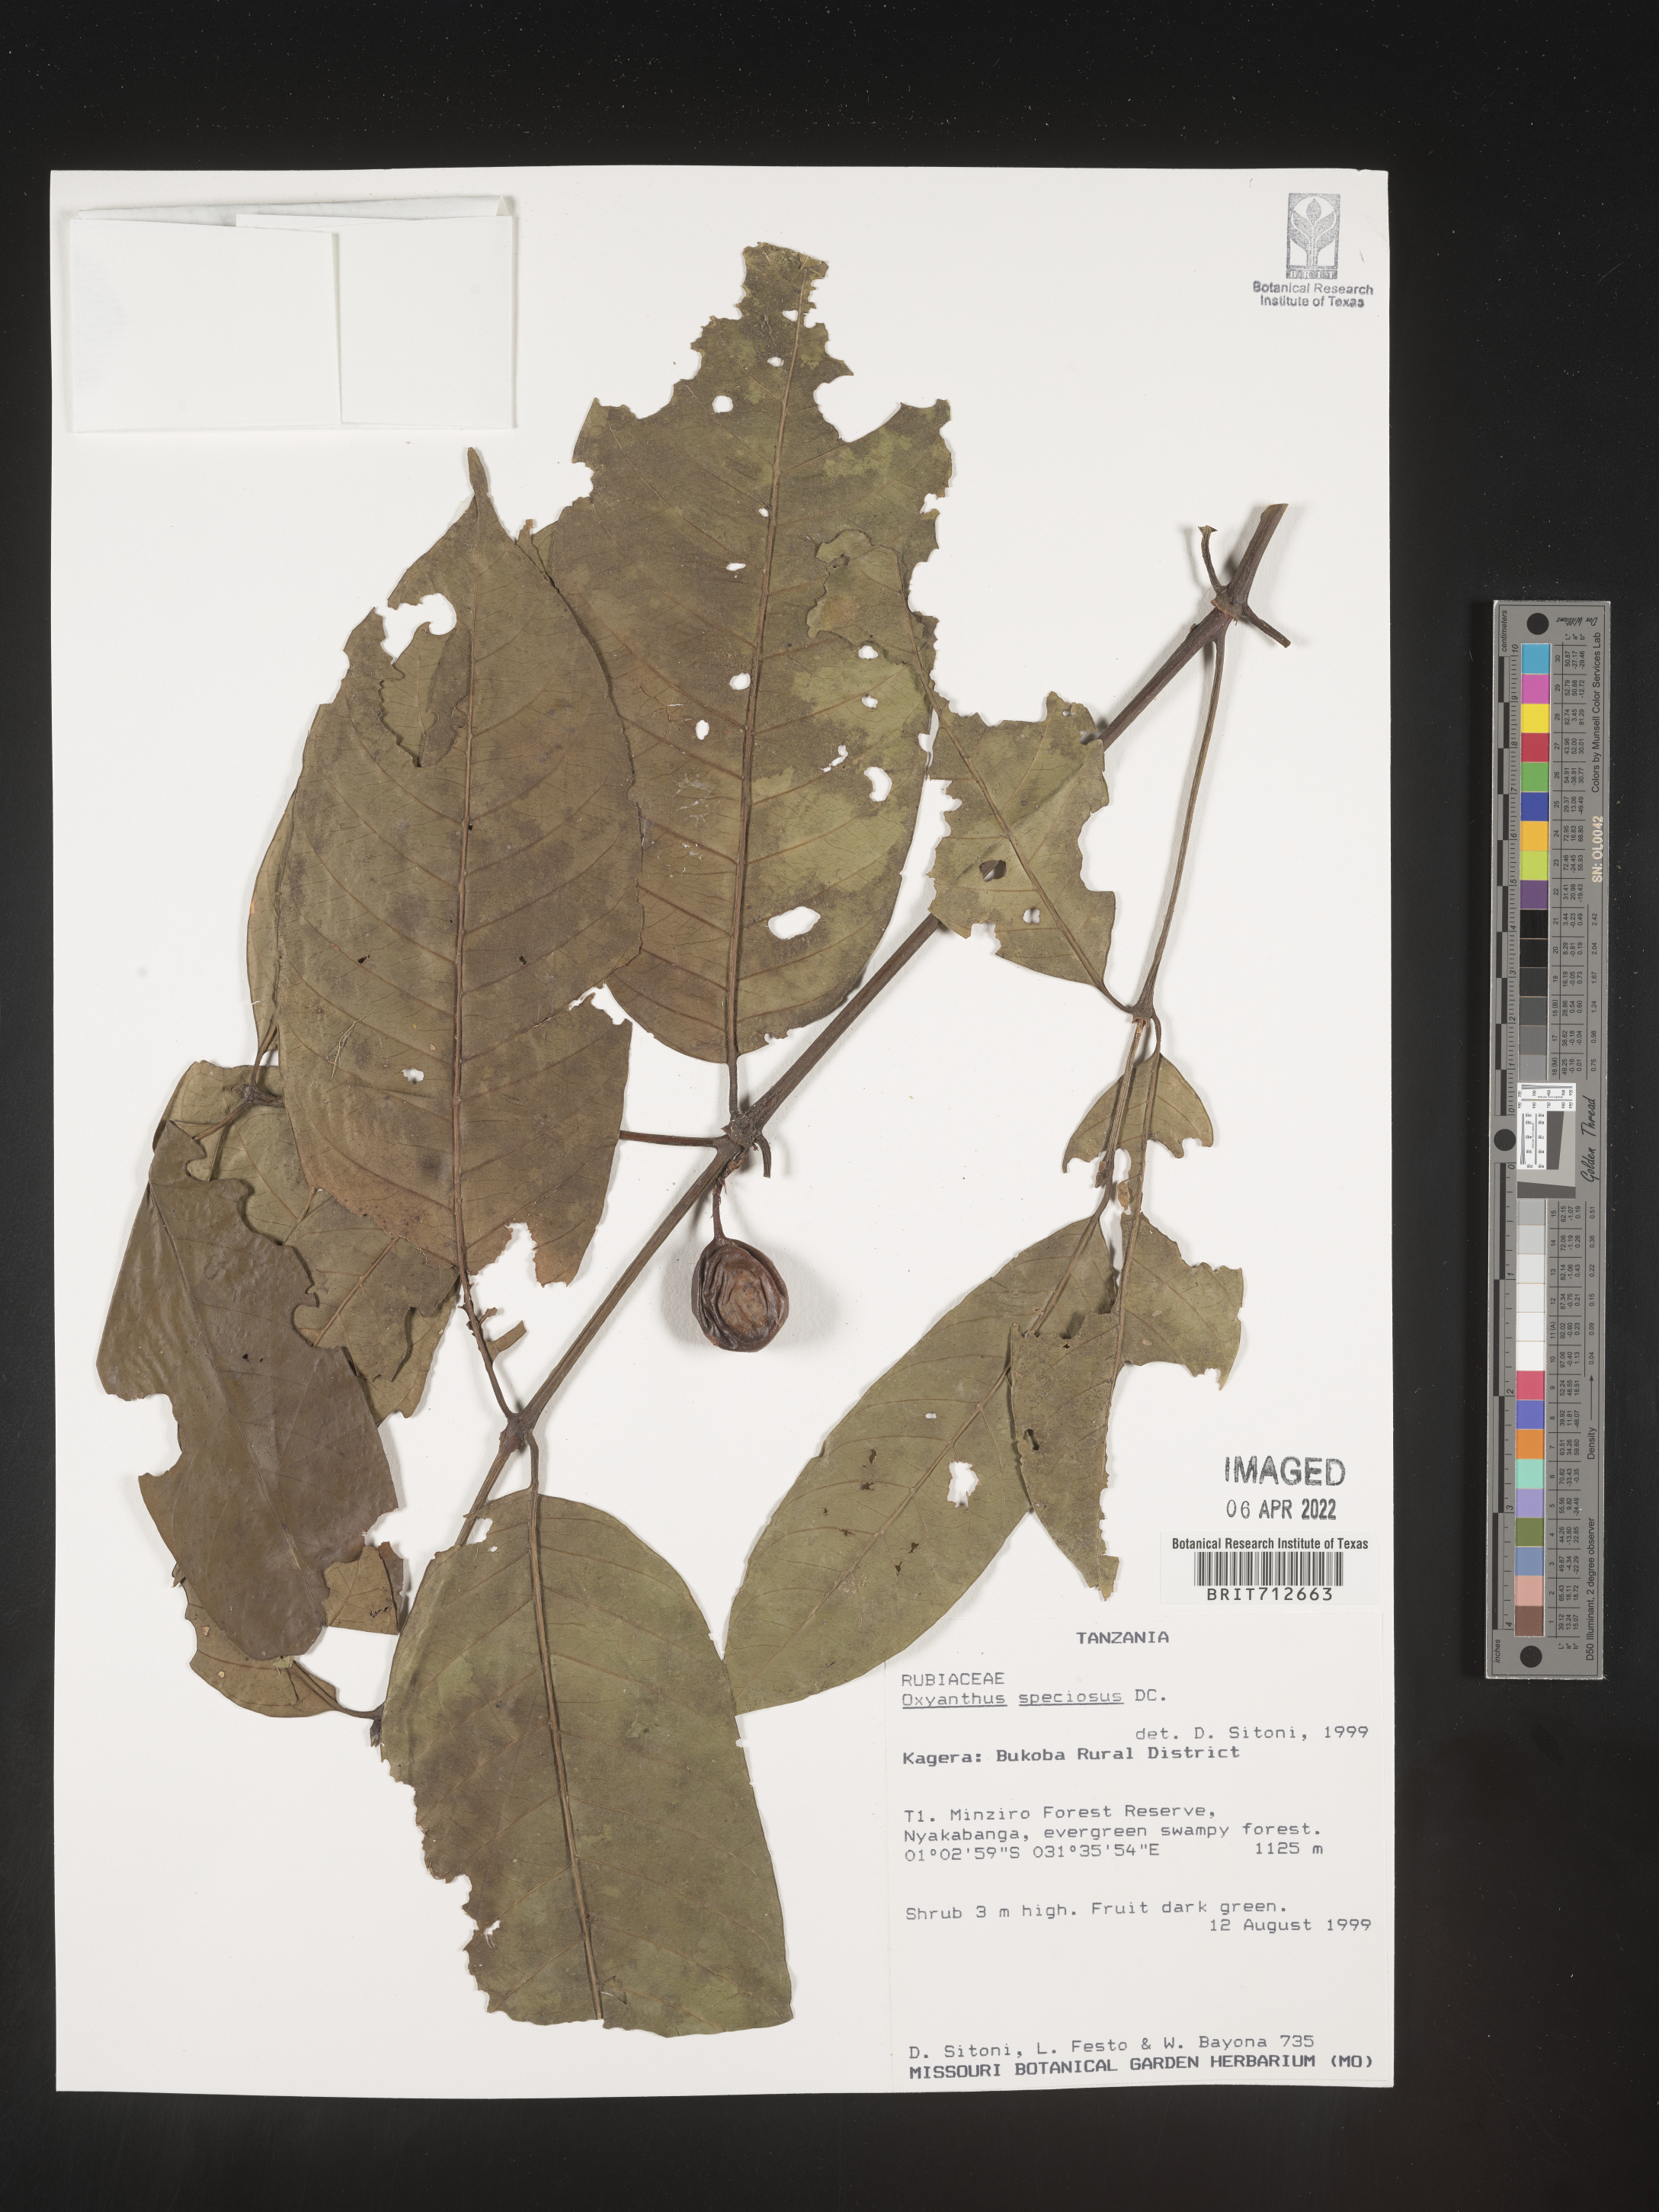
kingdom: Plantae
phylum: Tracheophyta
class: Magnoliopsida
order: Gentianales
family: Rubiaceae
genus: Oxyanthus
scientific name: Oxyanthus
